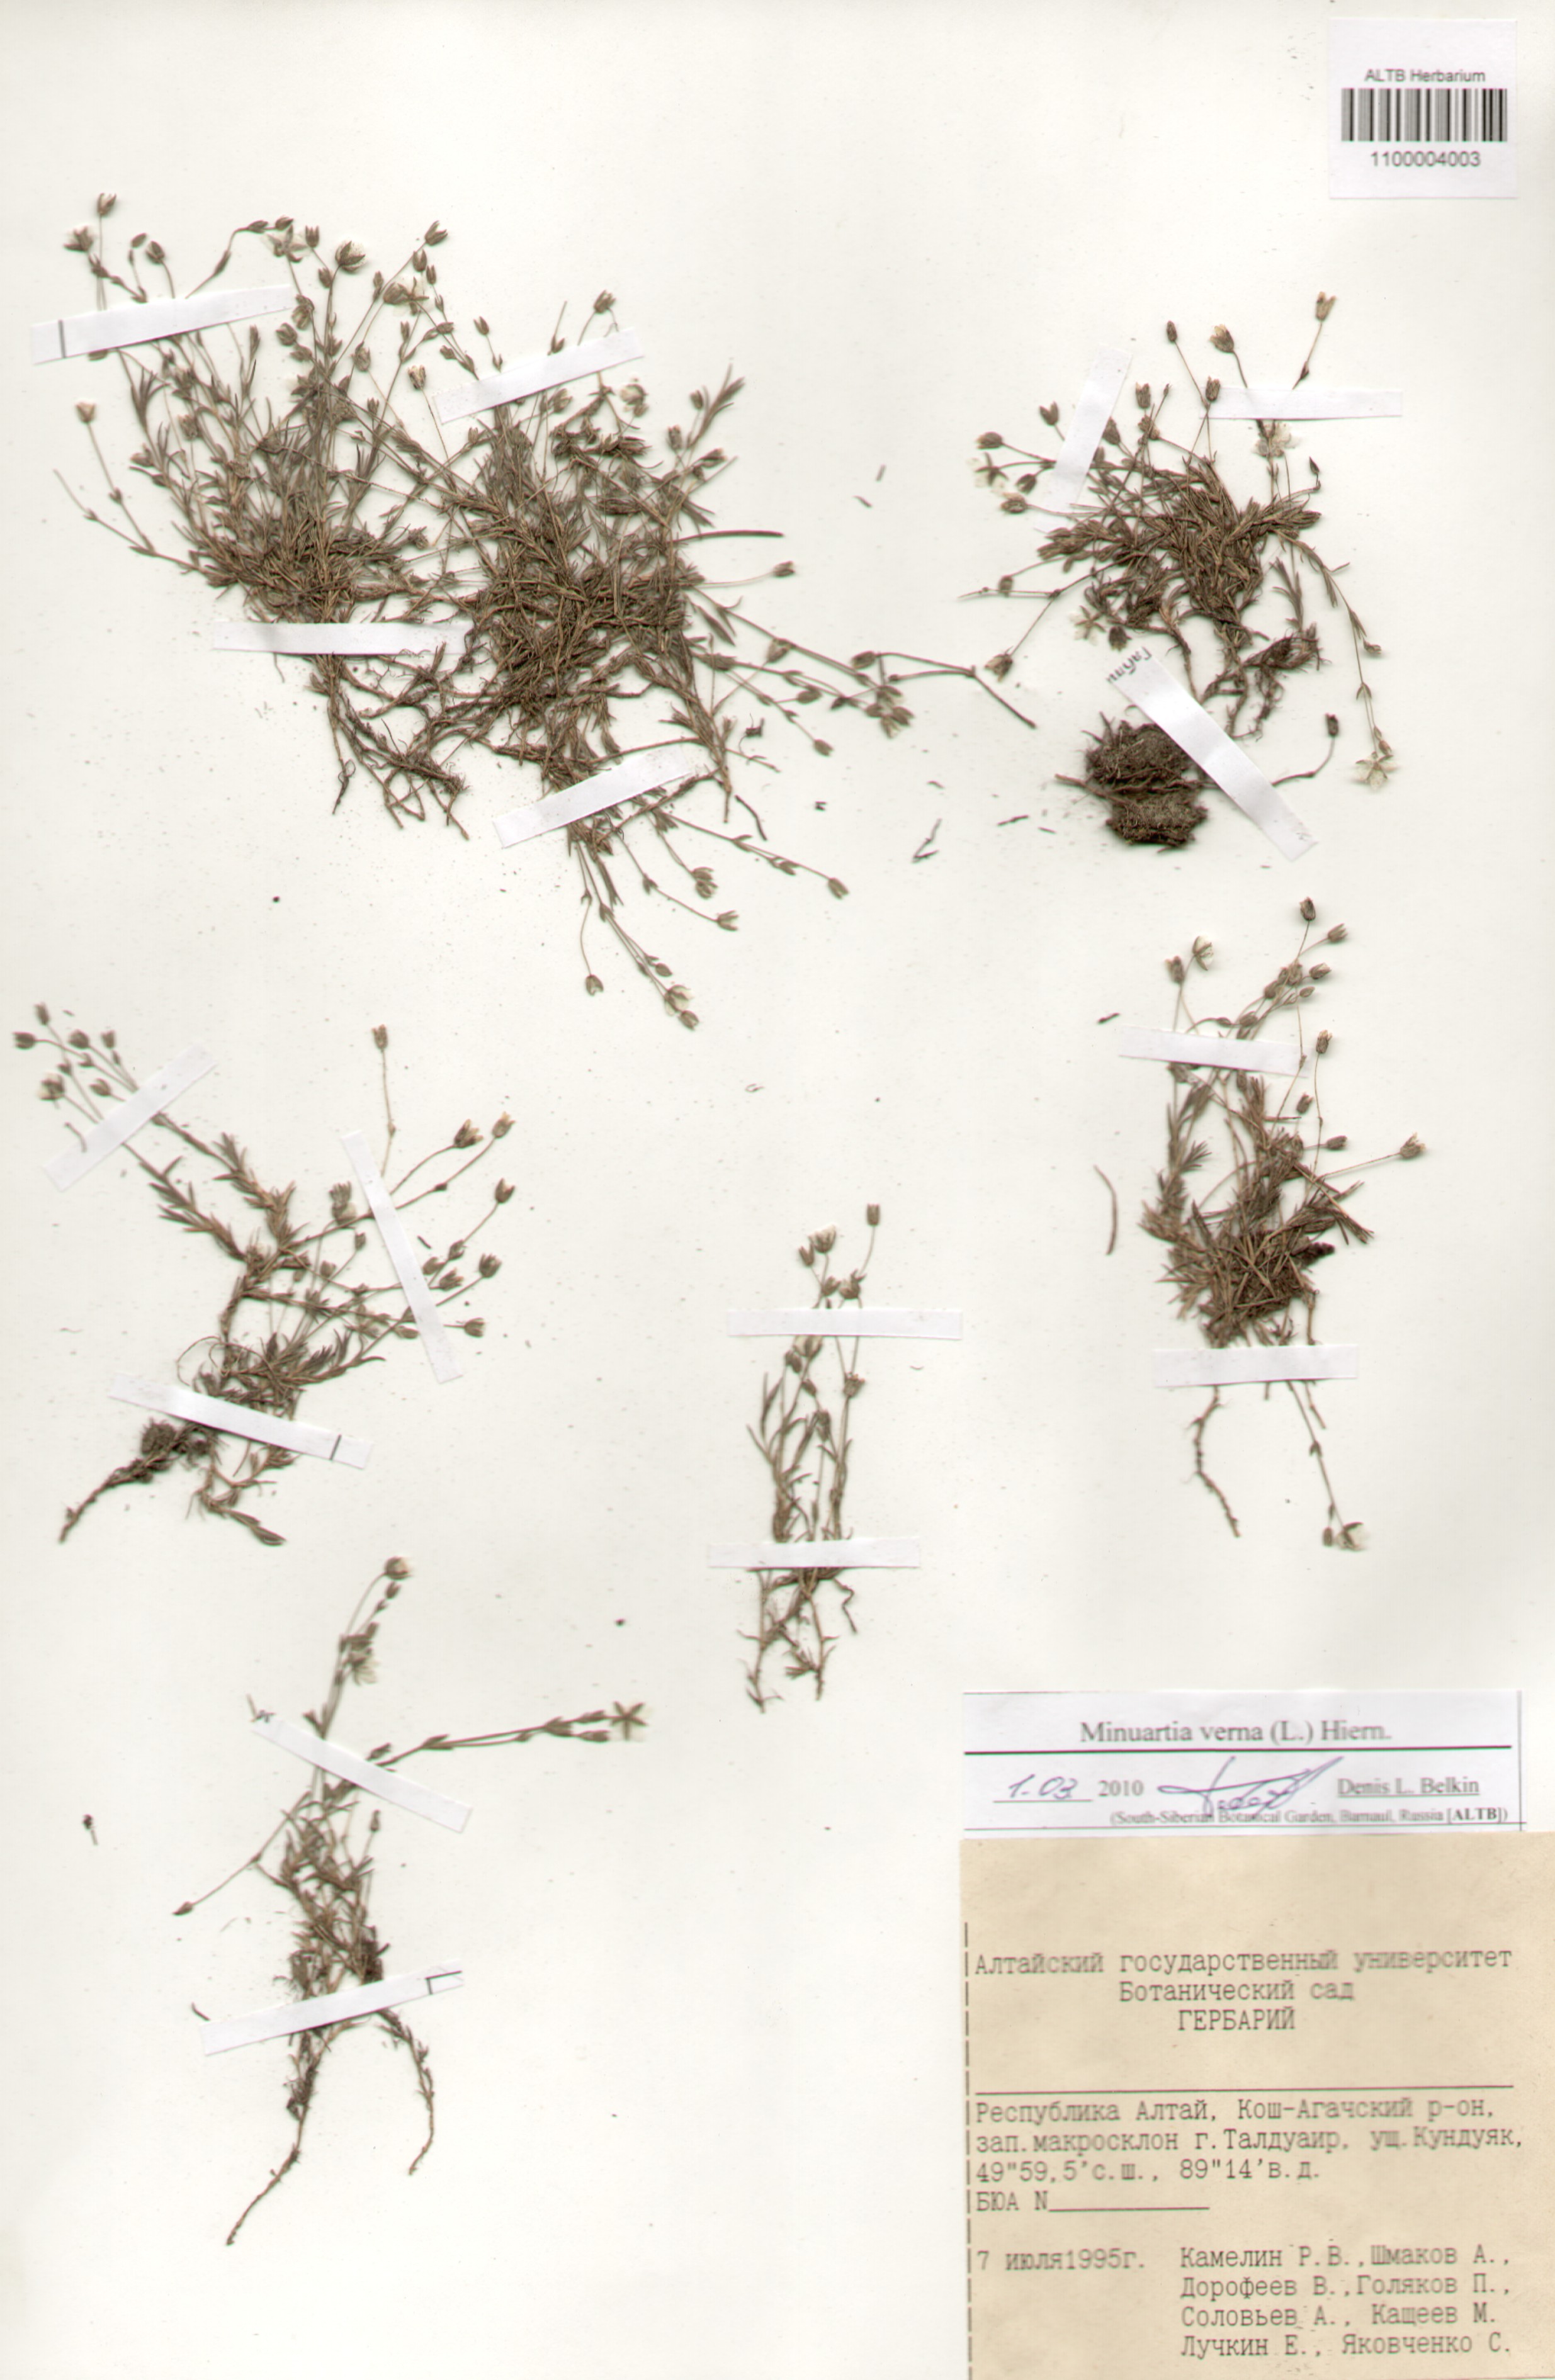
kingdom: Plantae
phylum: Tracheophyta
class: Magnoliopsida
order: Caryophyllales
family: Caryophyllaceae
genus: Sabulina
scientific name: Sabulina verna
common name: Spring sandwort
